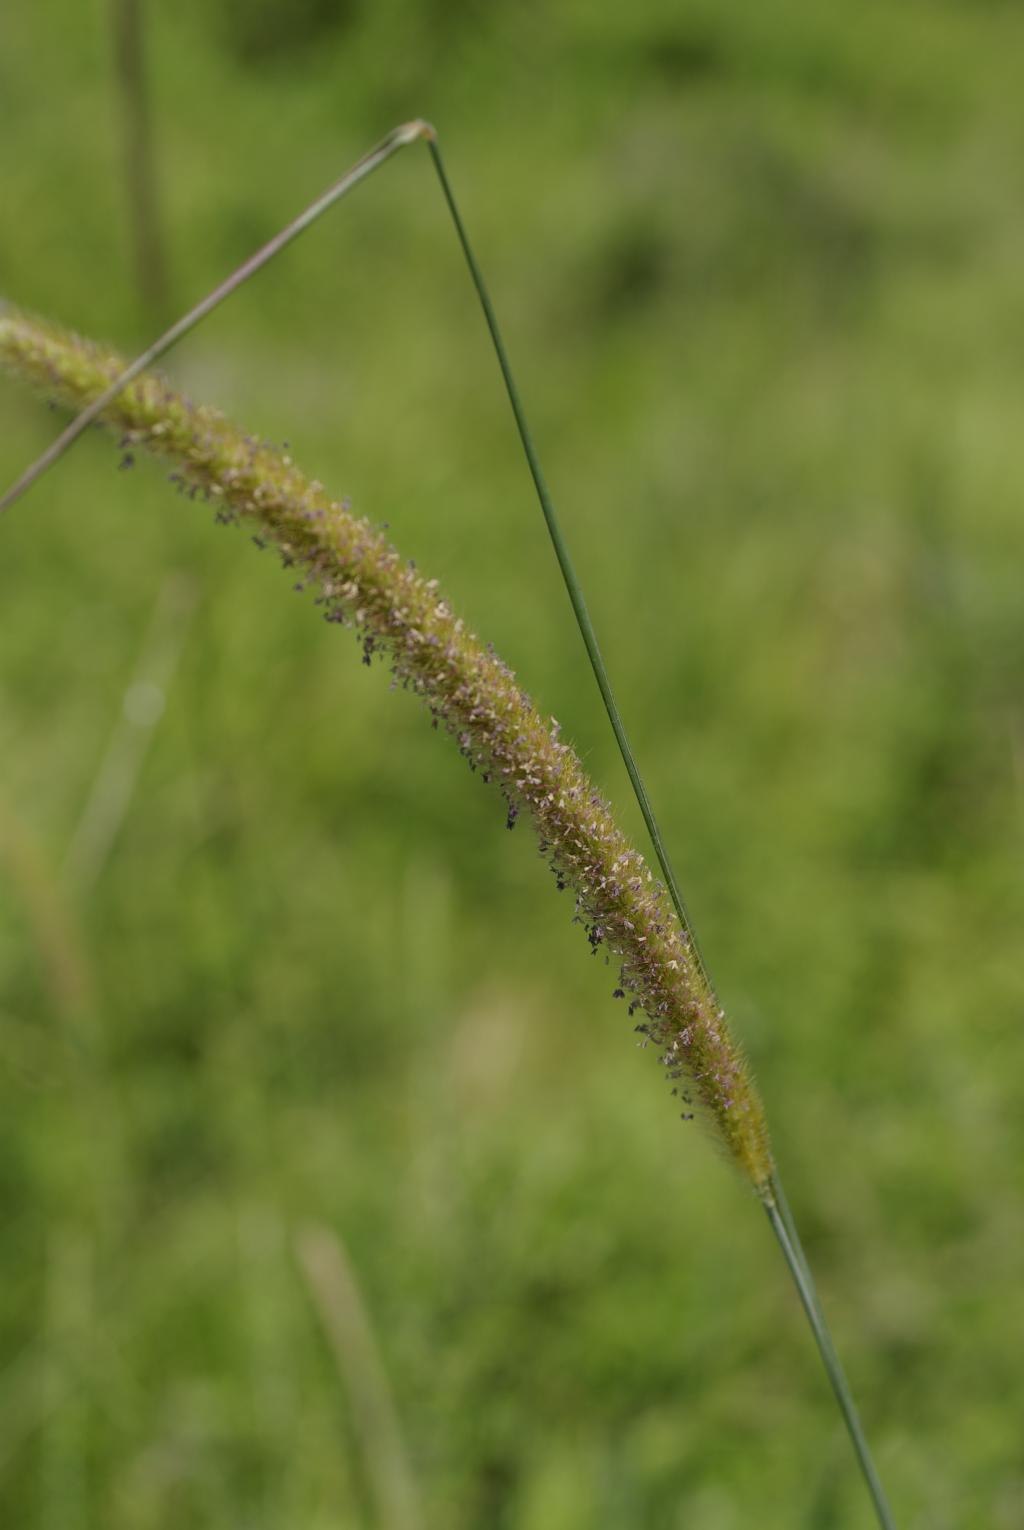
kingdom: Plantae
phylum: Tracheophyta
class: Liliopsida
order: Poales
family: Poaceae
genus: Setaria
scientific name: Setaria sphacelata
